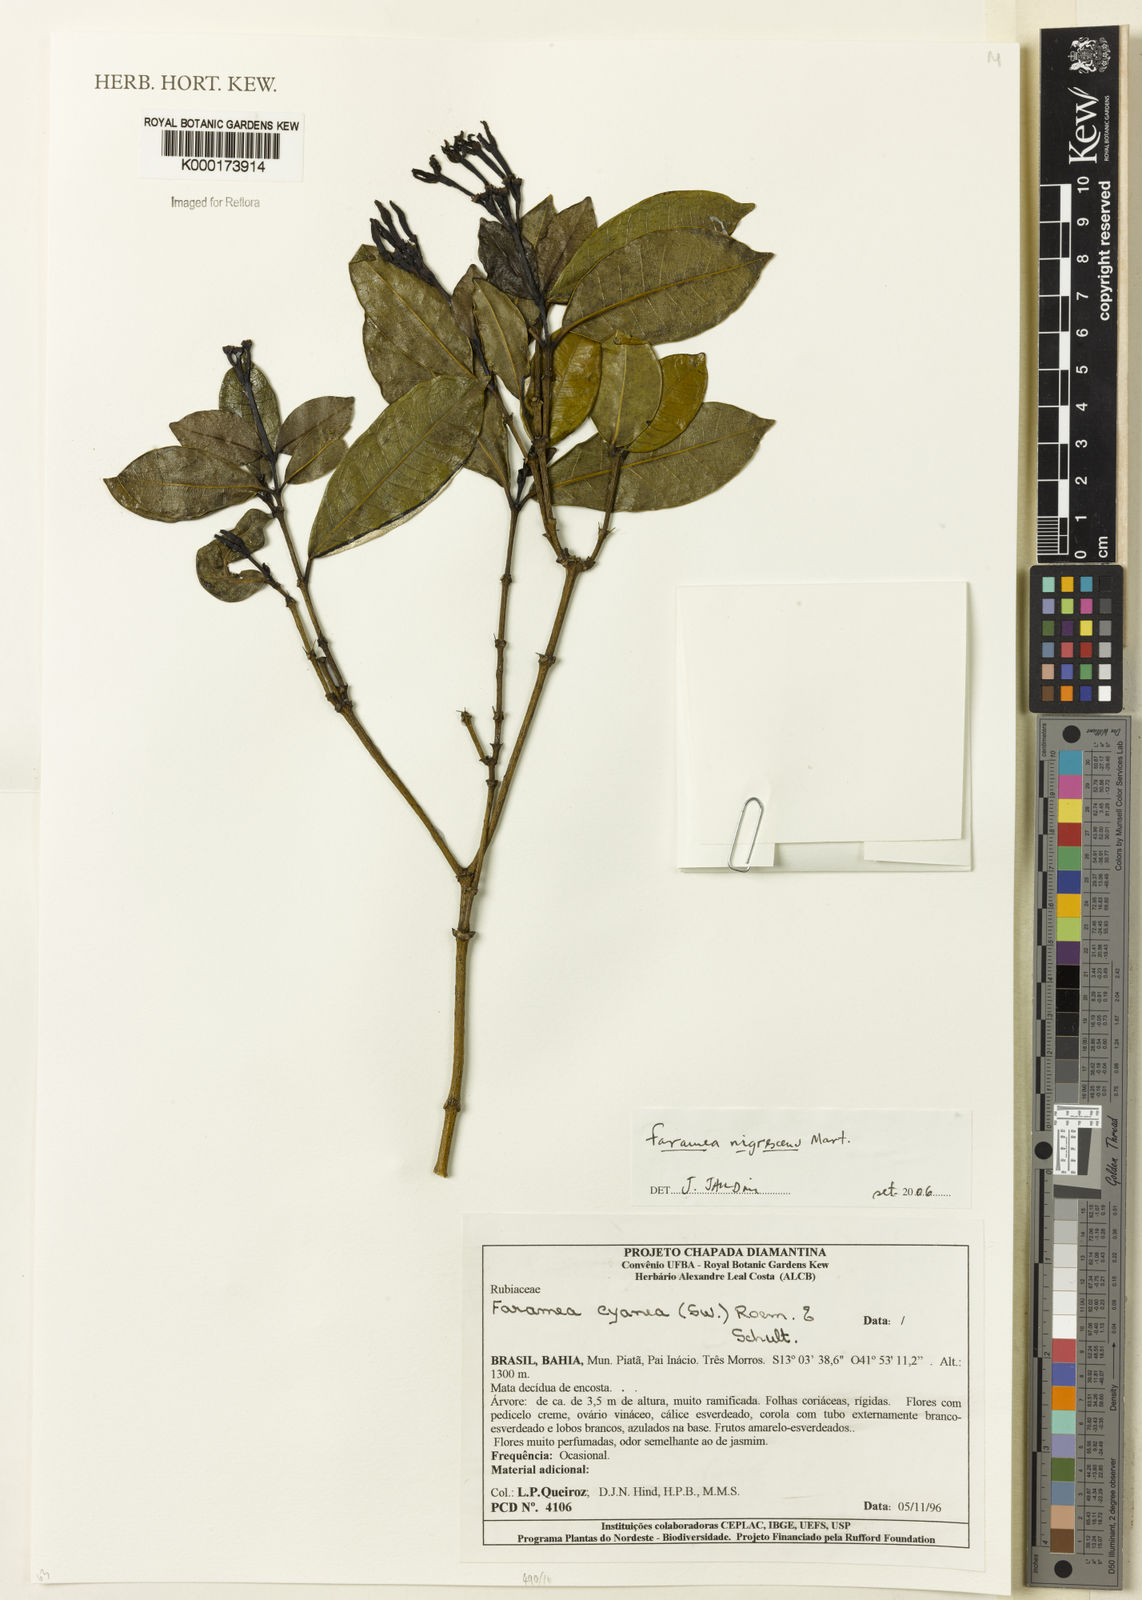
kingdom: Plantae
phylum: Tracheophyta
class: Magnoliopsida
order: Gentianales
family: Rubiaceae
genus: Faramea
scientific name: Faramea nigrescens
